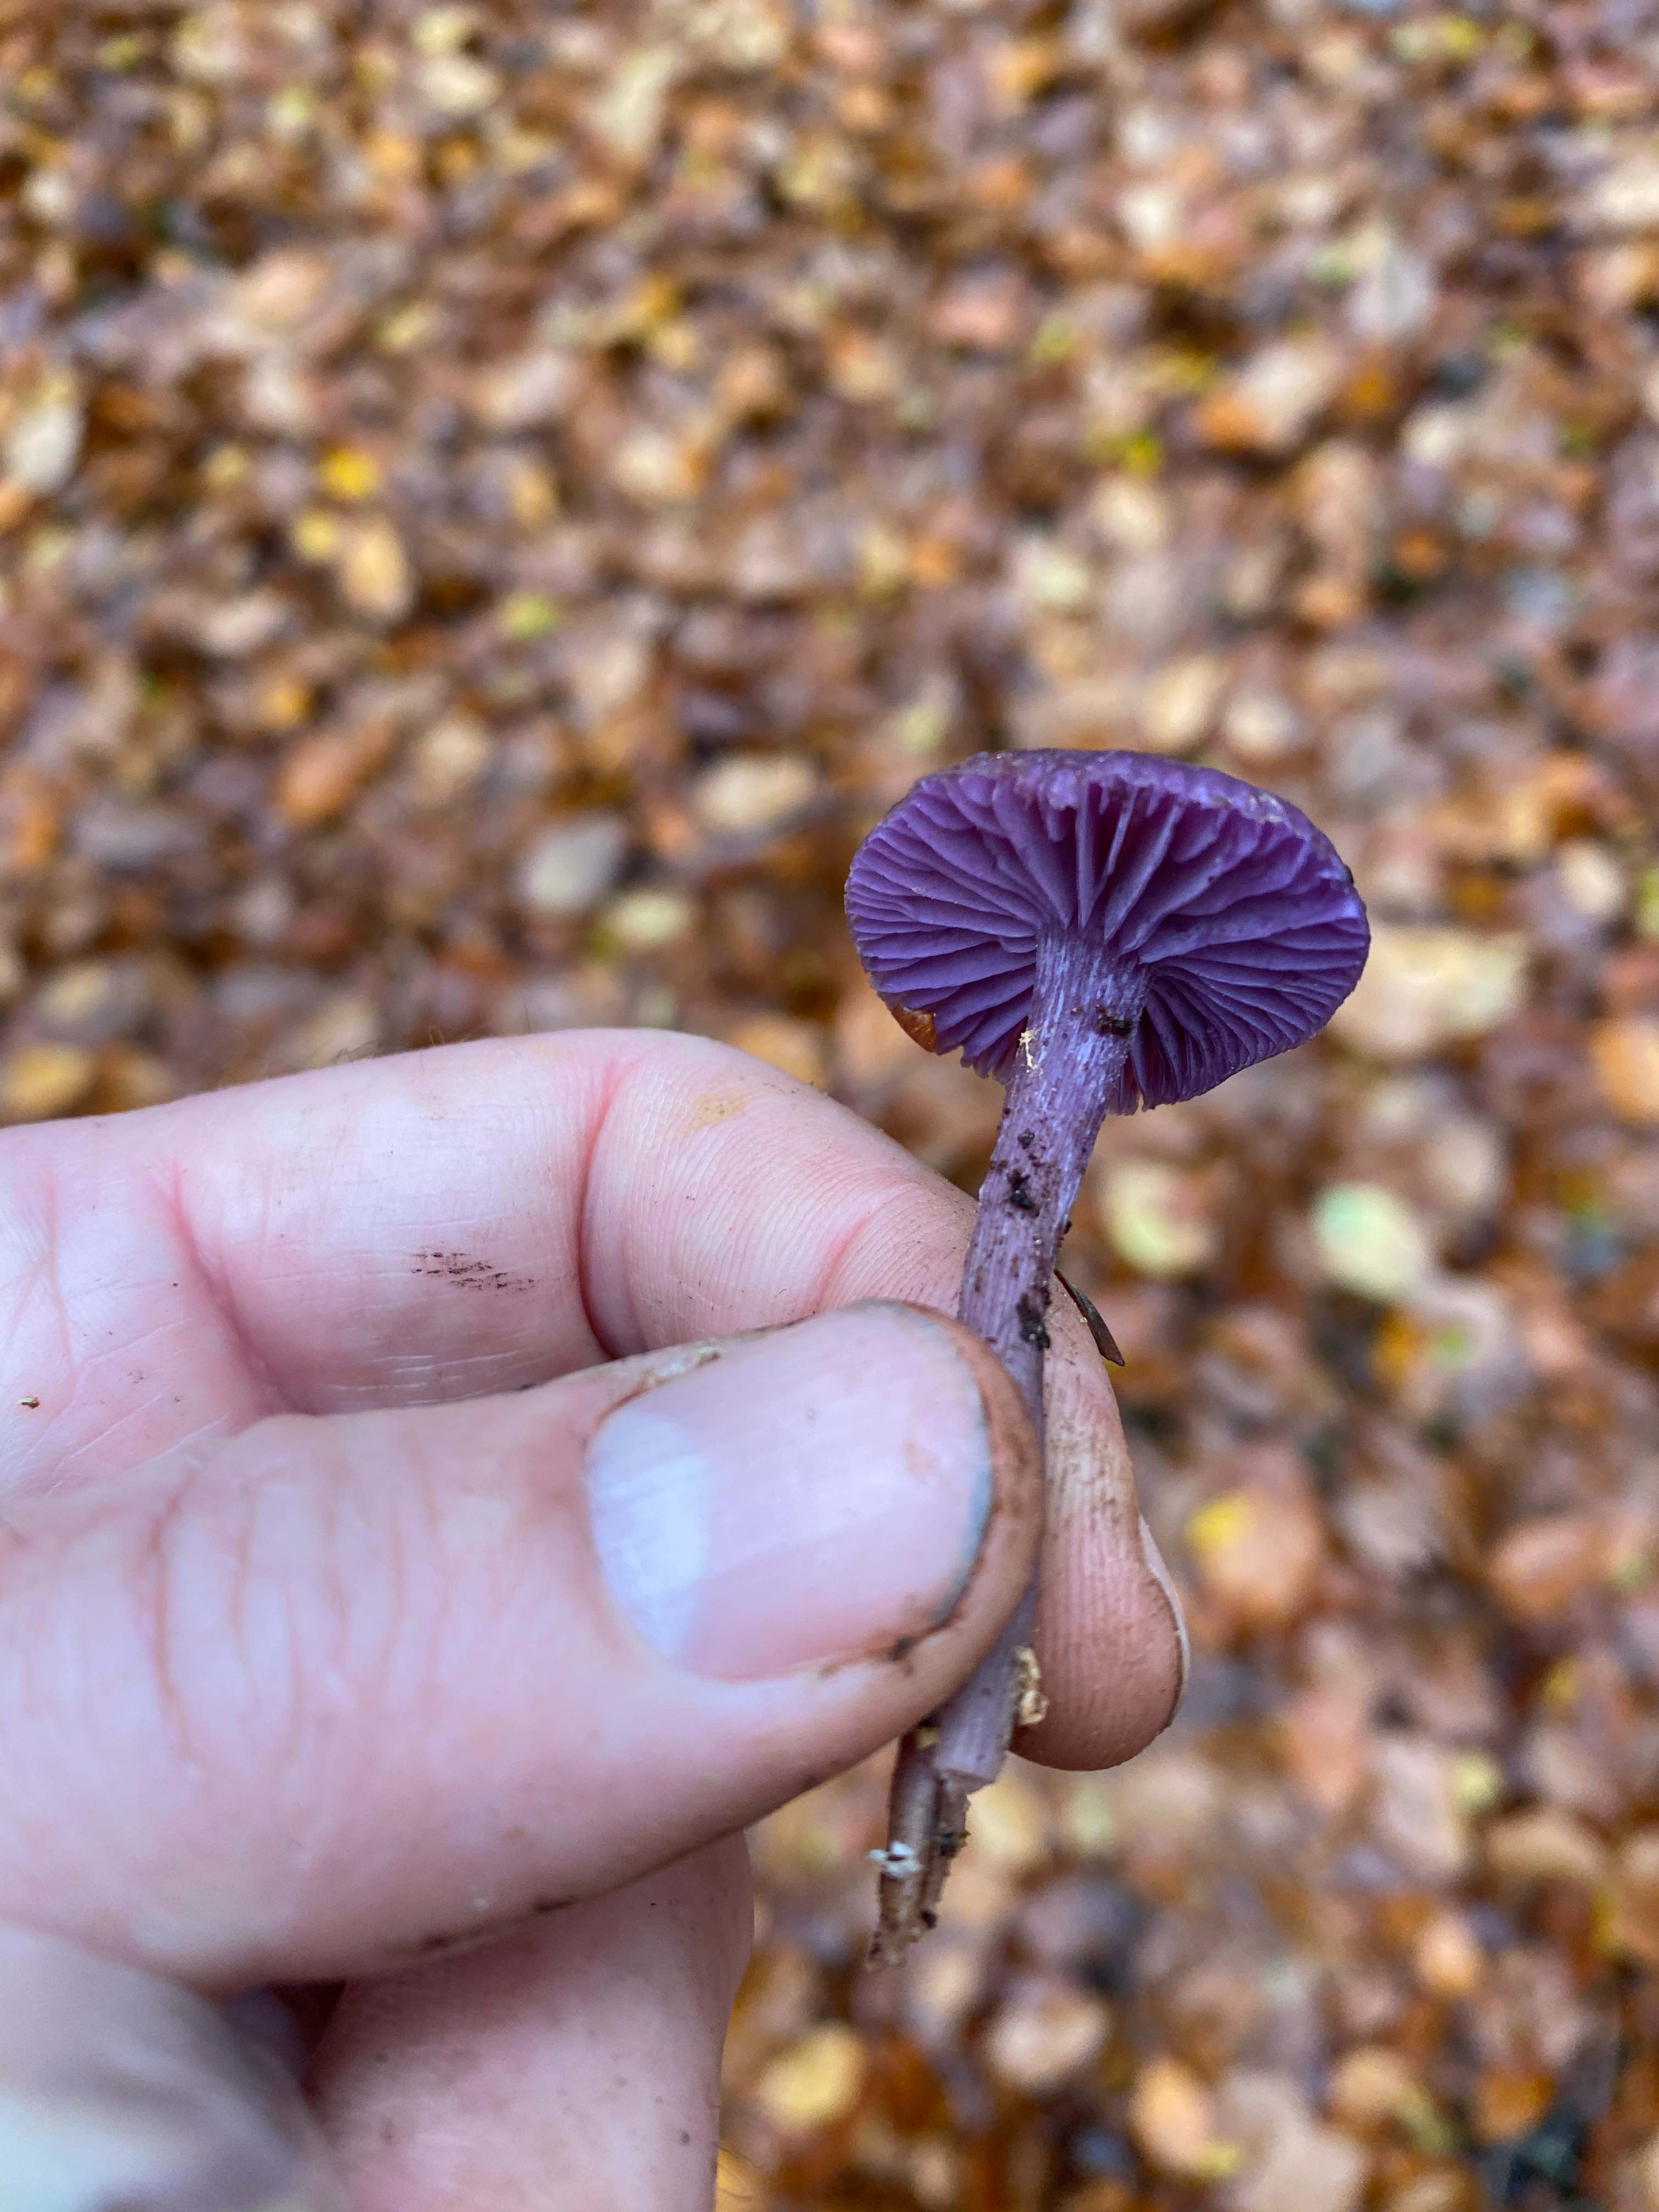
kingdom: Fungi
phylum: Basidiomycota
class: Agaricomycetes
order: Agaricales
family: Hydnangiaceae
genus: Laccaria
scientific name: Laccaria amethystina
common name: violet ametysthat
